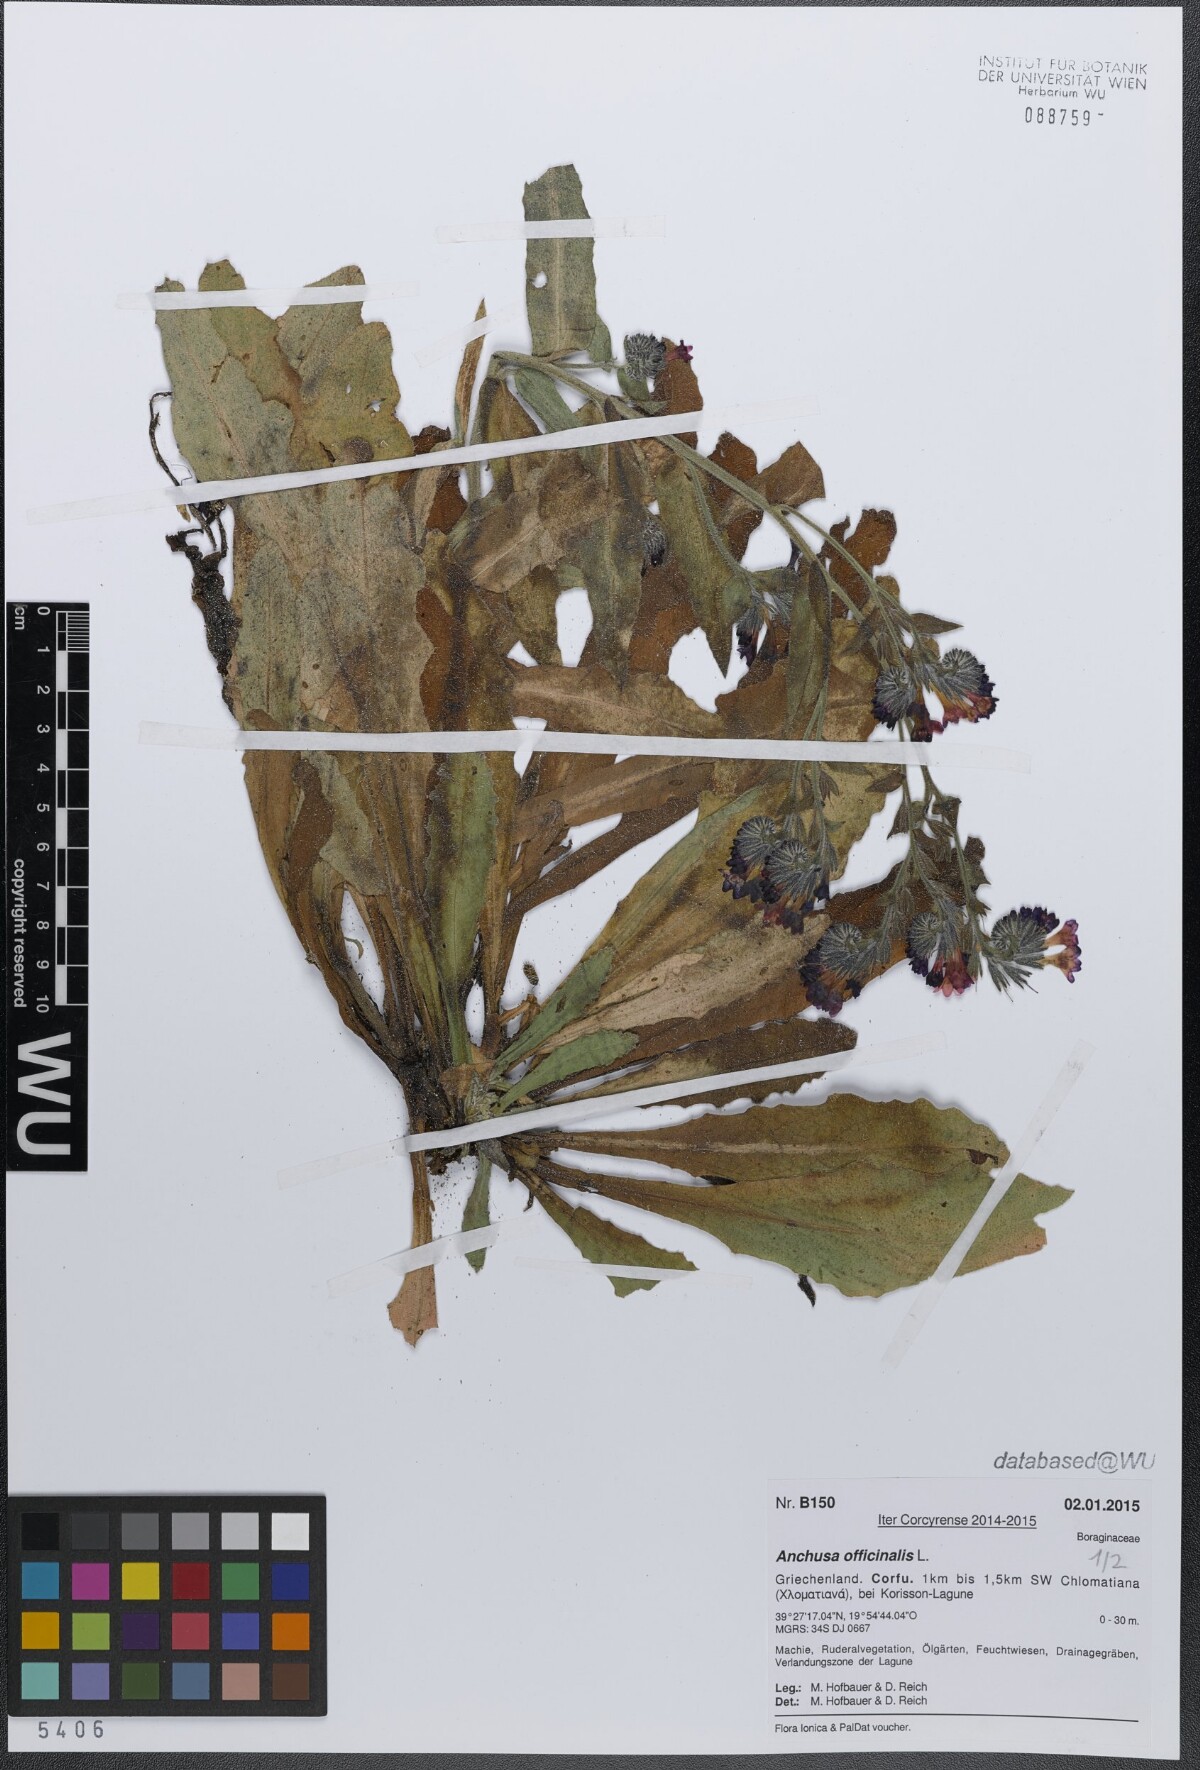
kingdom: Plantae
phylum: Tracheophyta
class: Magnoliopsida
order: Boraginales
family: Boraginaceae
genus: Anchusa
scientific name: Anchusa officinalis
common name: Alkanet
